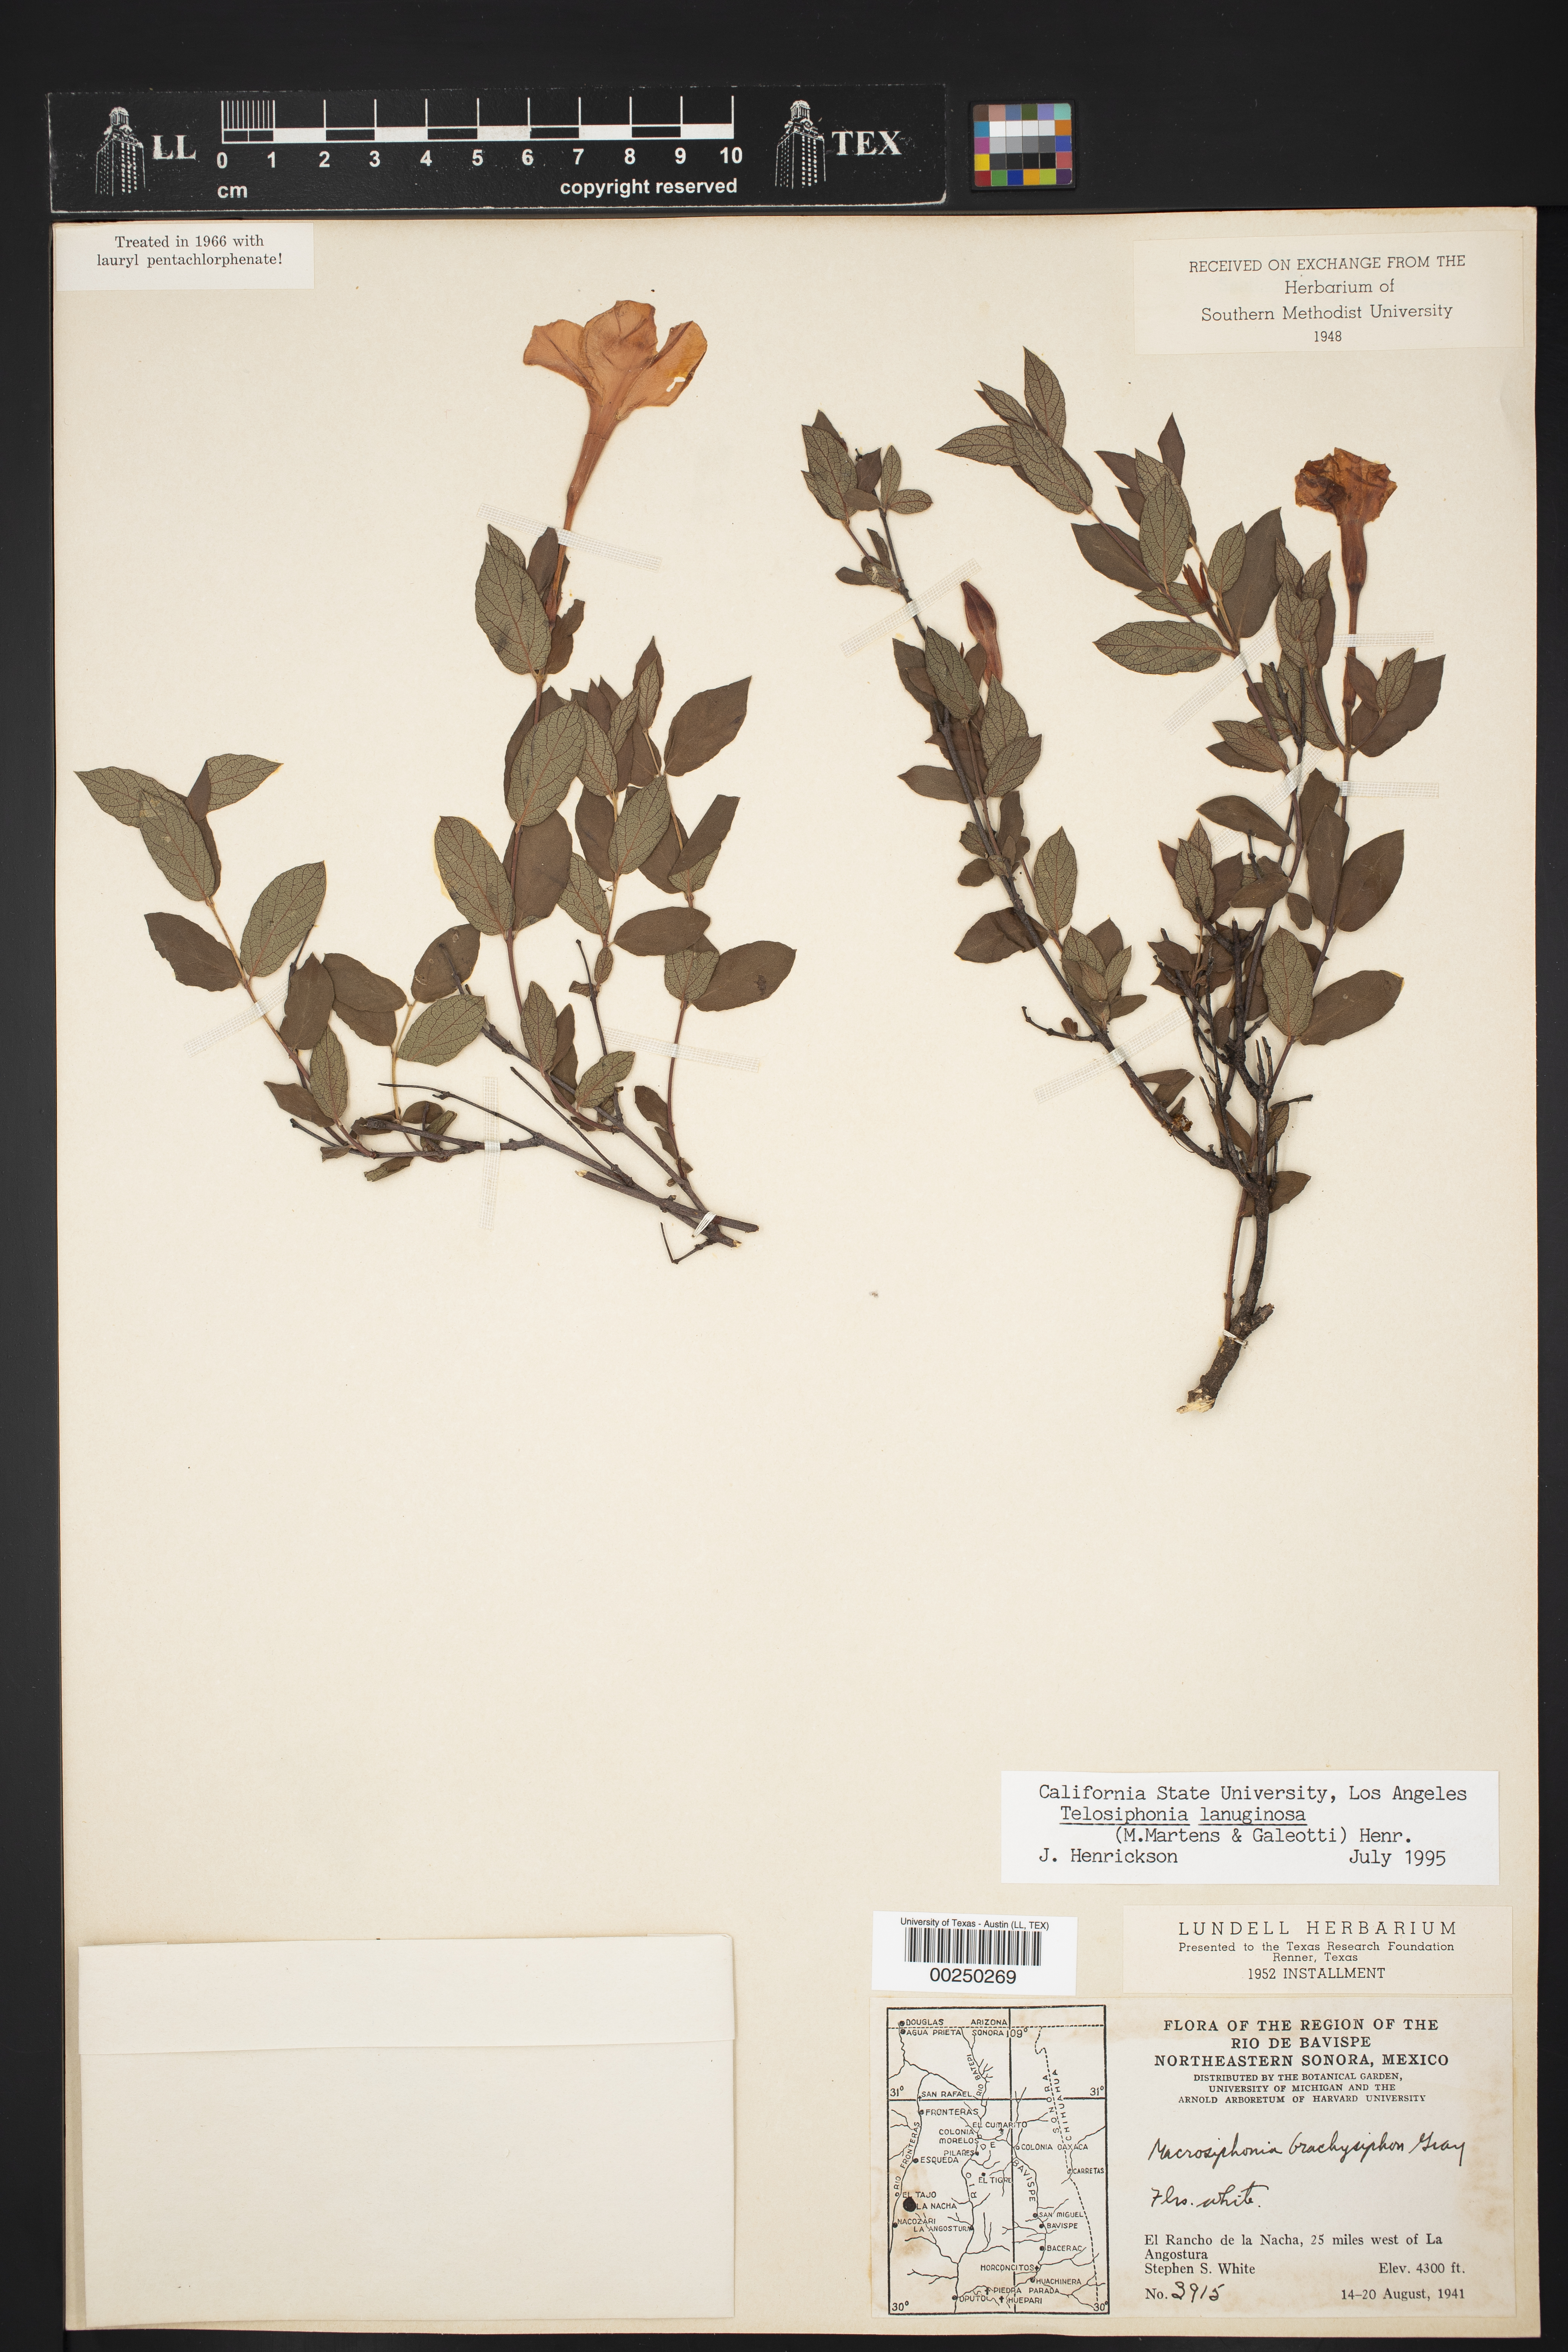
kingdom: Plantae
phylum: Tracheophyta
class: Magnoliopsida
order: Gentianales
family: Apocynaceae
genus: Mandevilla
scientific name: Mandevilla brachysiphon
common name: Huachuca mountain rocktrumpet
